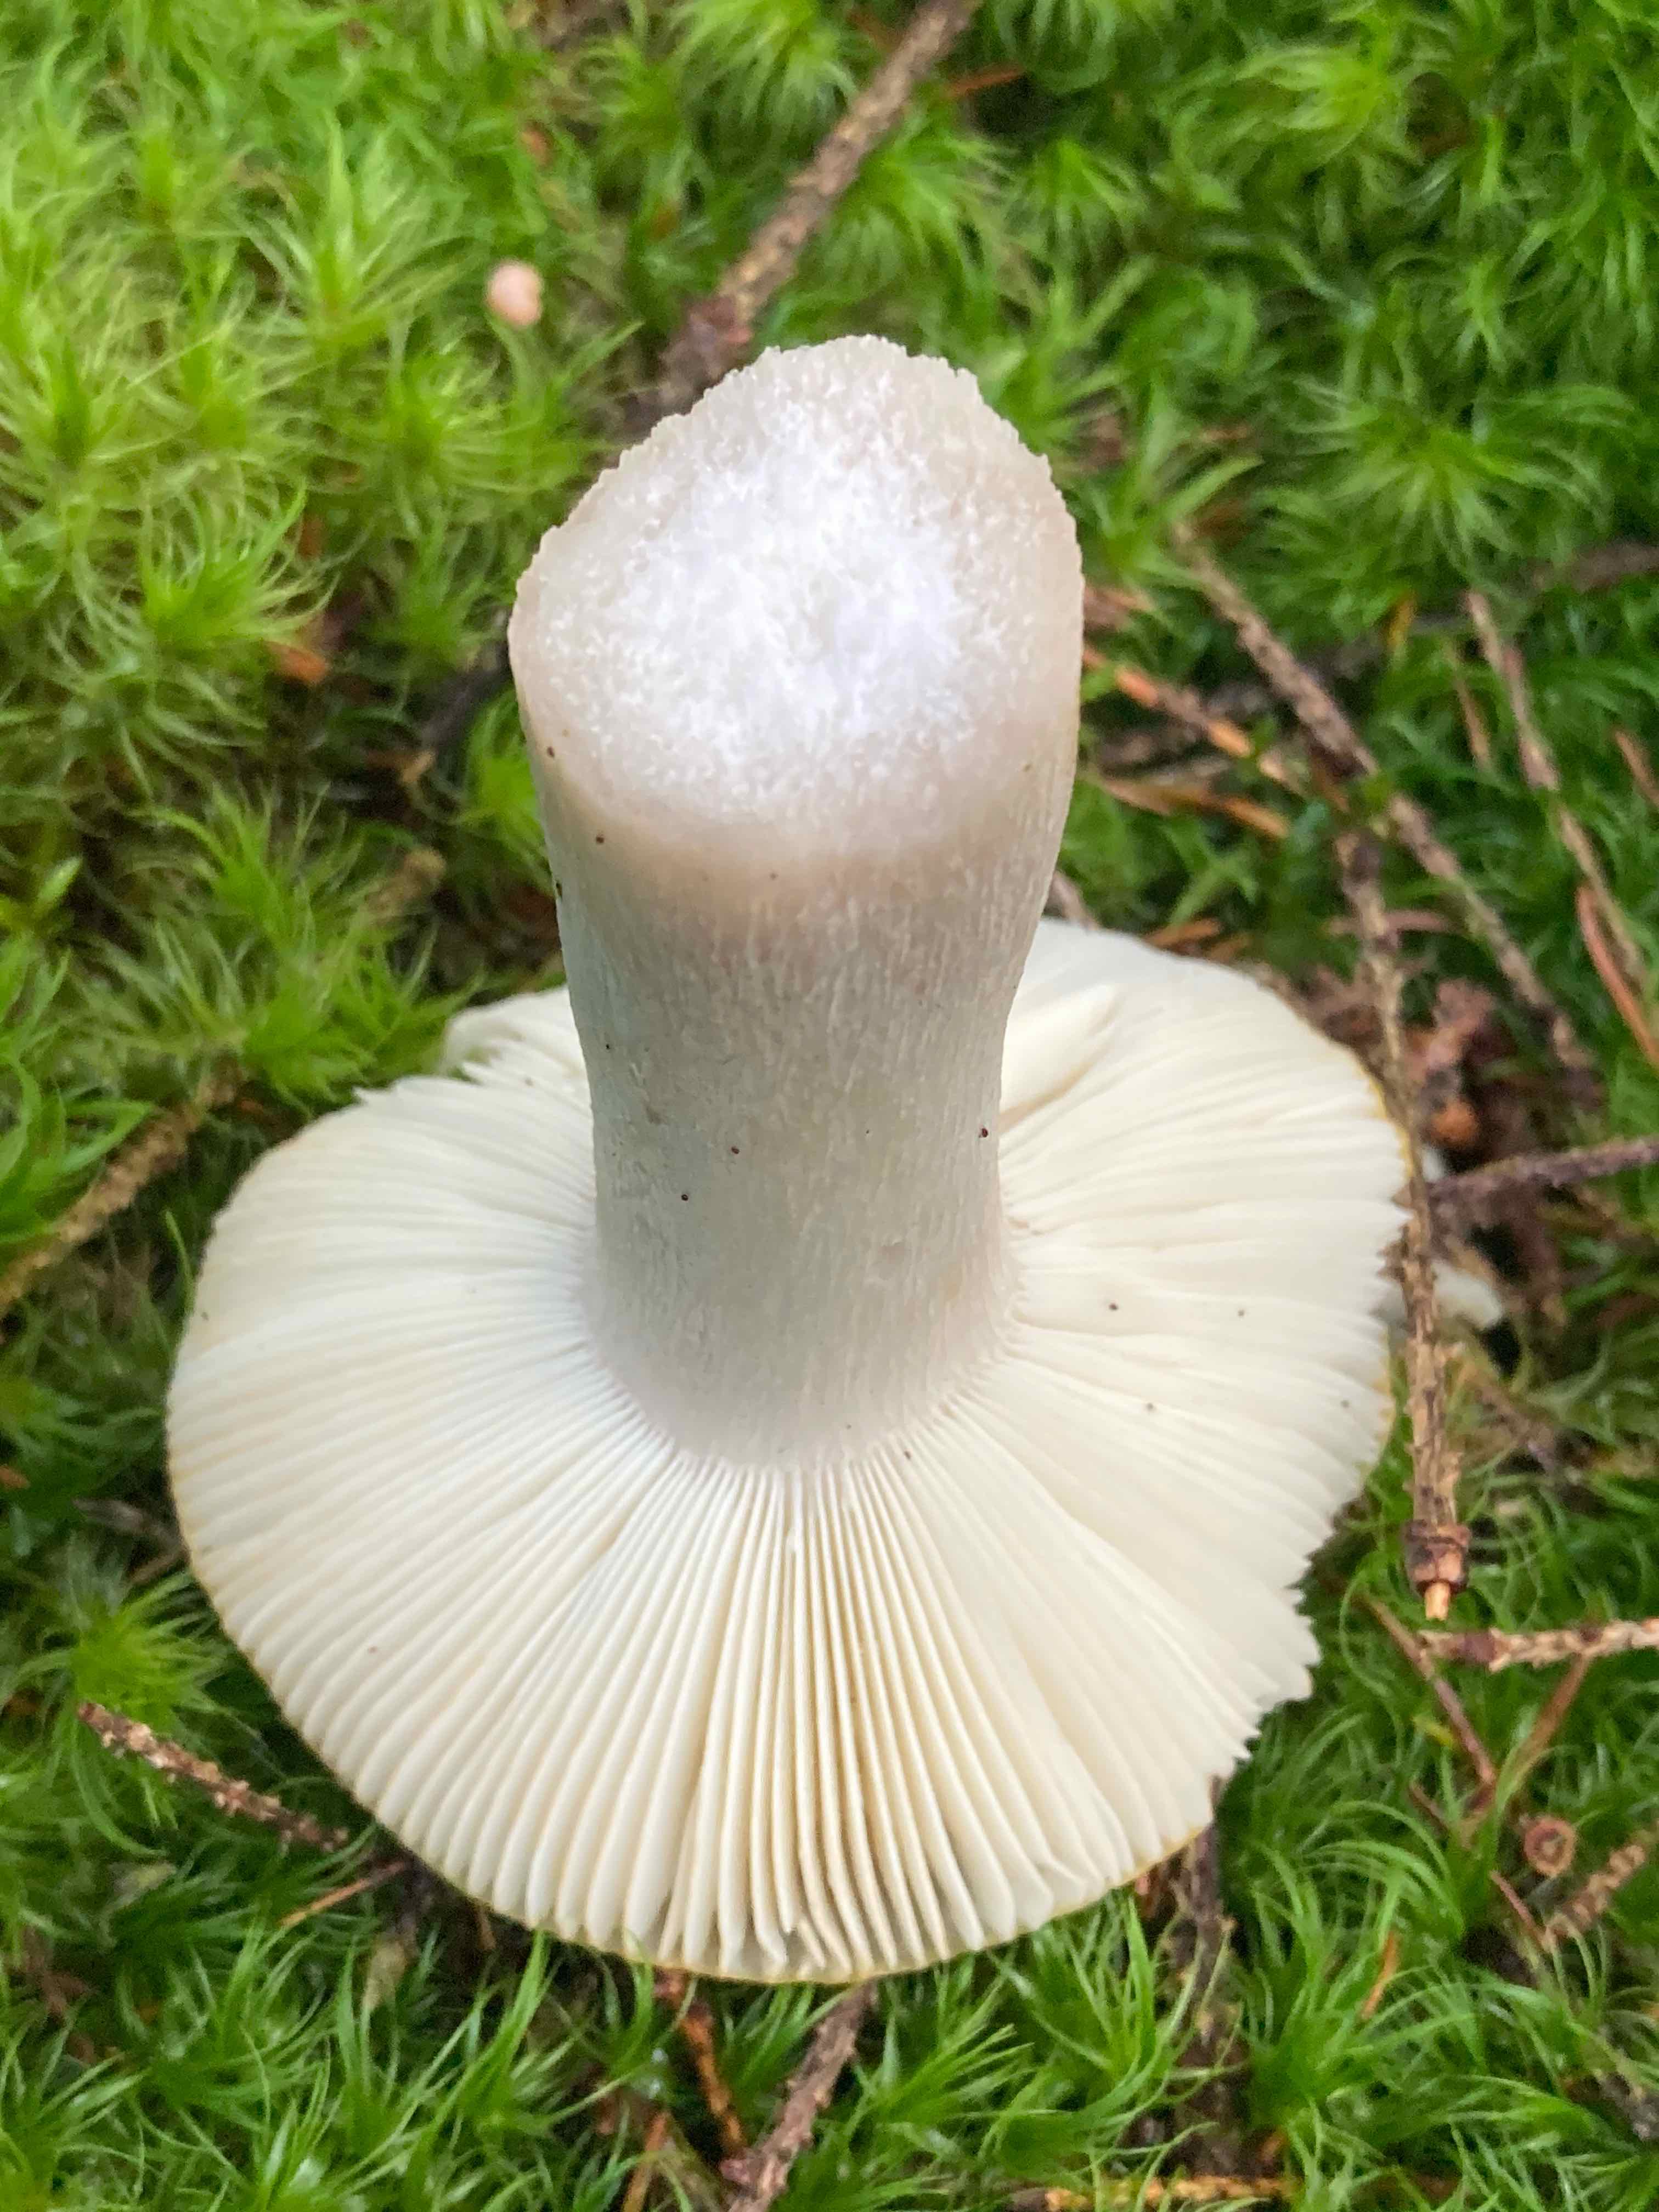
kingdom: Fungi
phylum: Basidiomycota
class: Agaricomycetes
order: Russulales
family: Russulaceae
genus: Russula
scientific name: Russula ochroleuca
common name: okkergul skørhat
